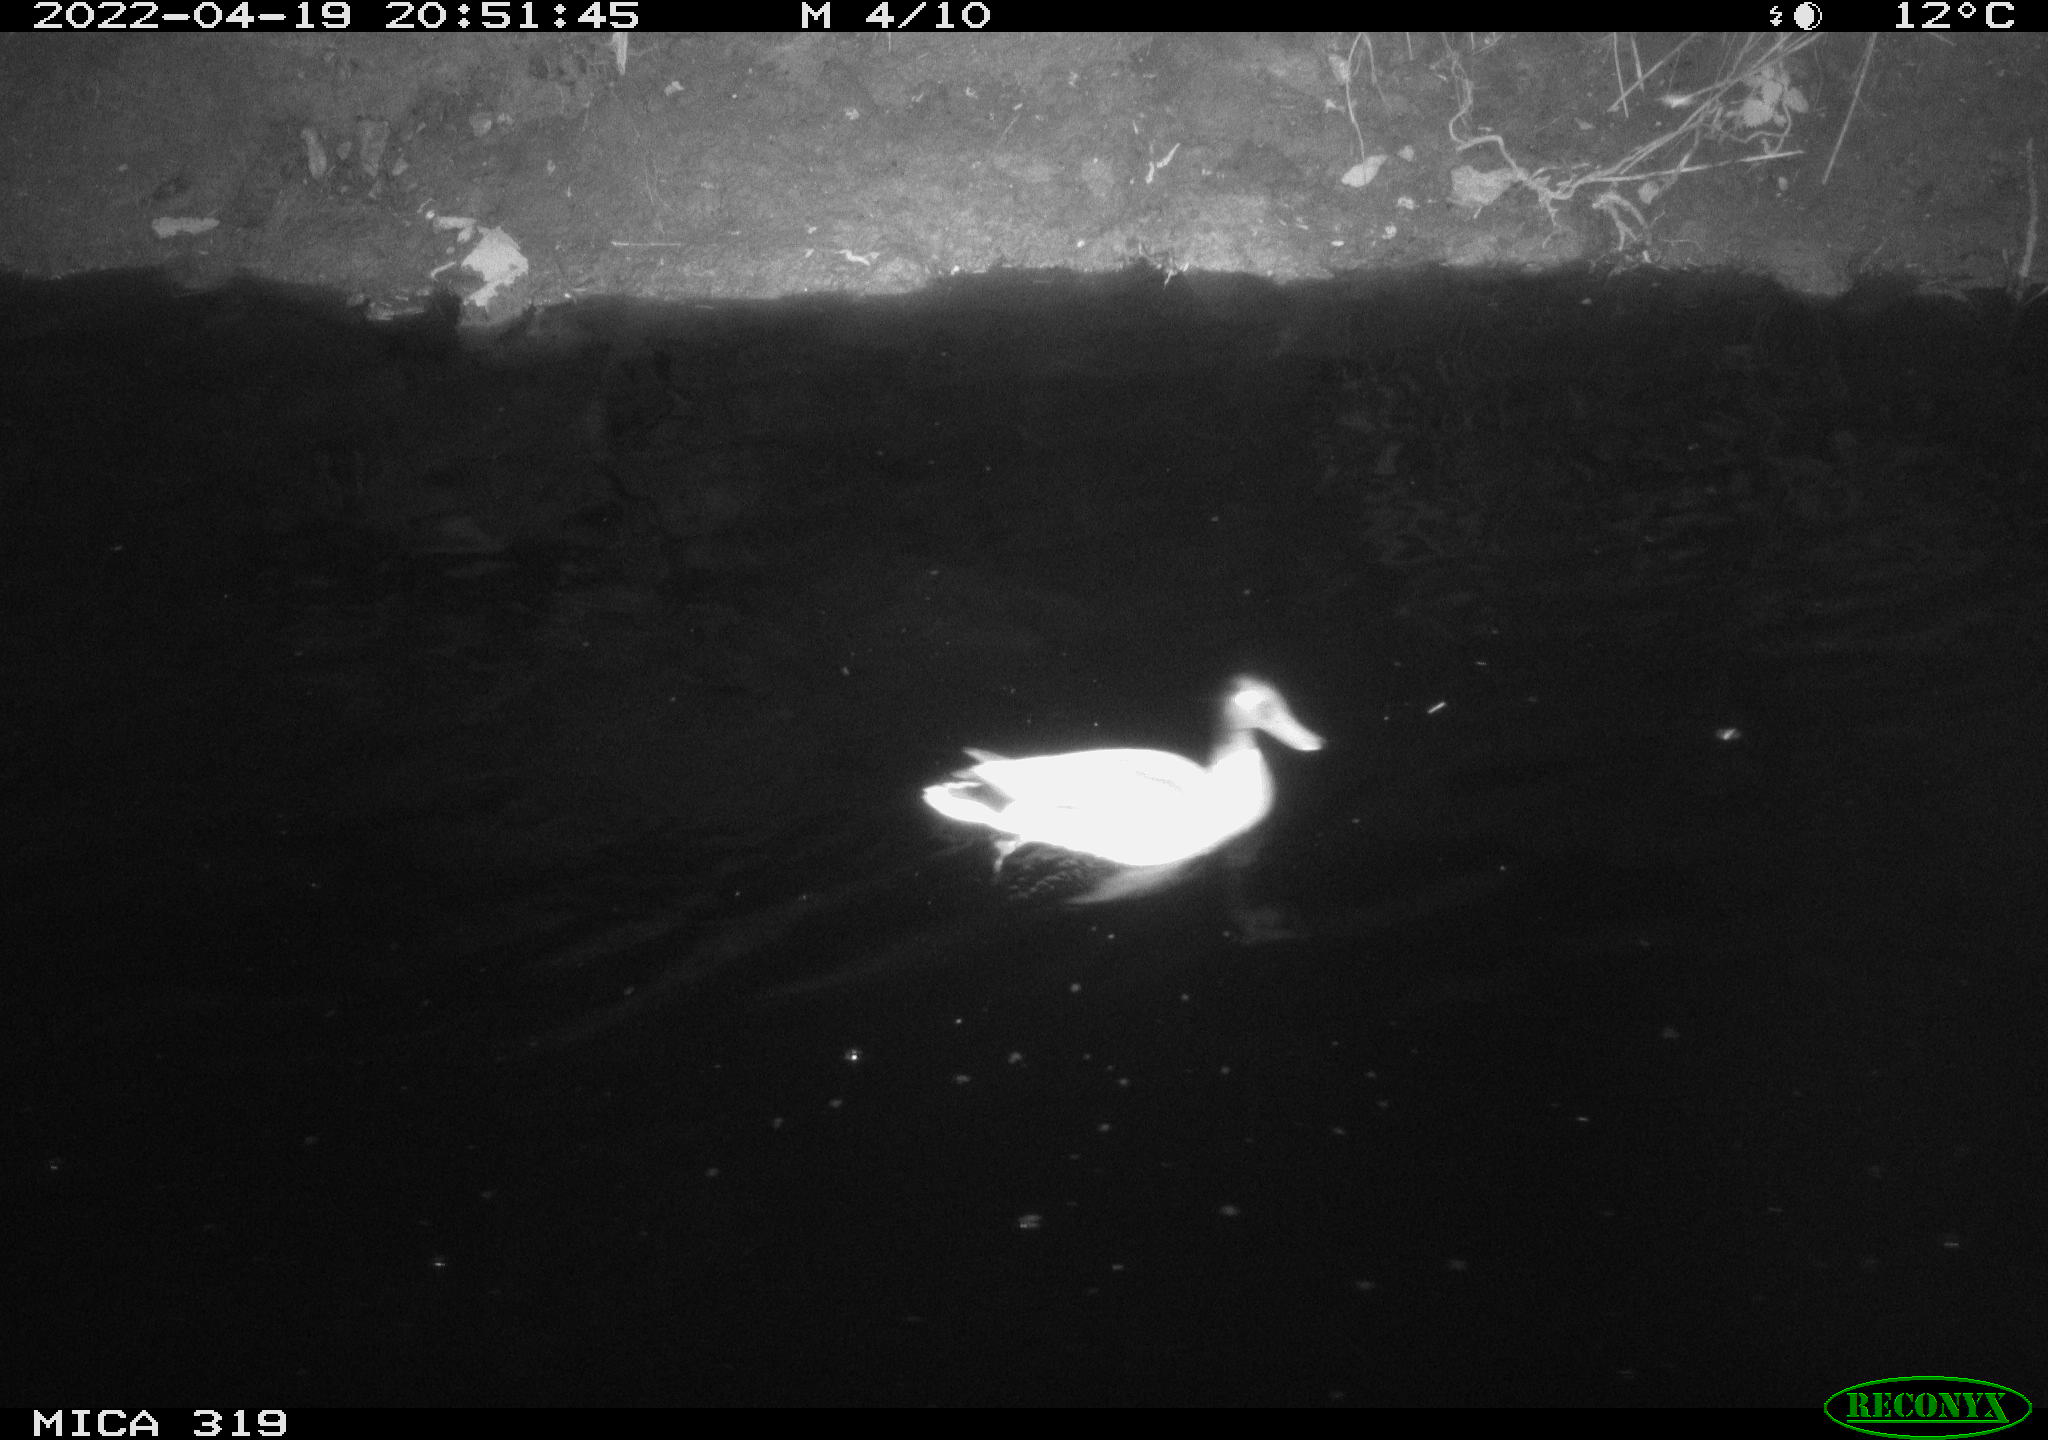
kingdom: Animalia
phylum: Chordata
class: Aves
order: Anseriformes
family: Anatidae
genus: Anas
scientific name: Anas platyrhynchos
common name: Mallard
